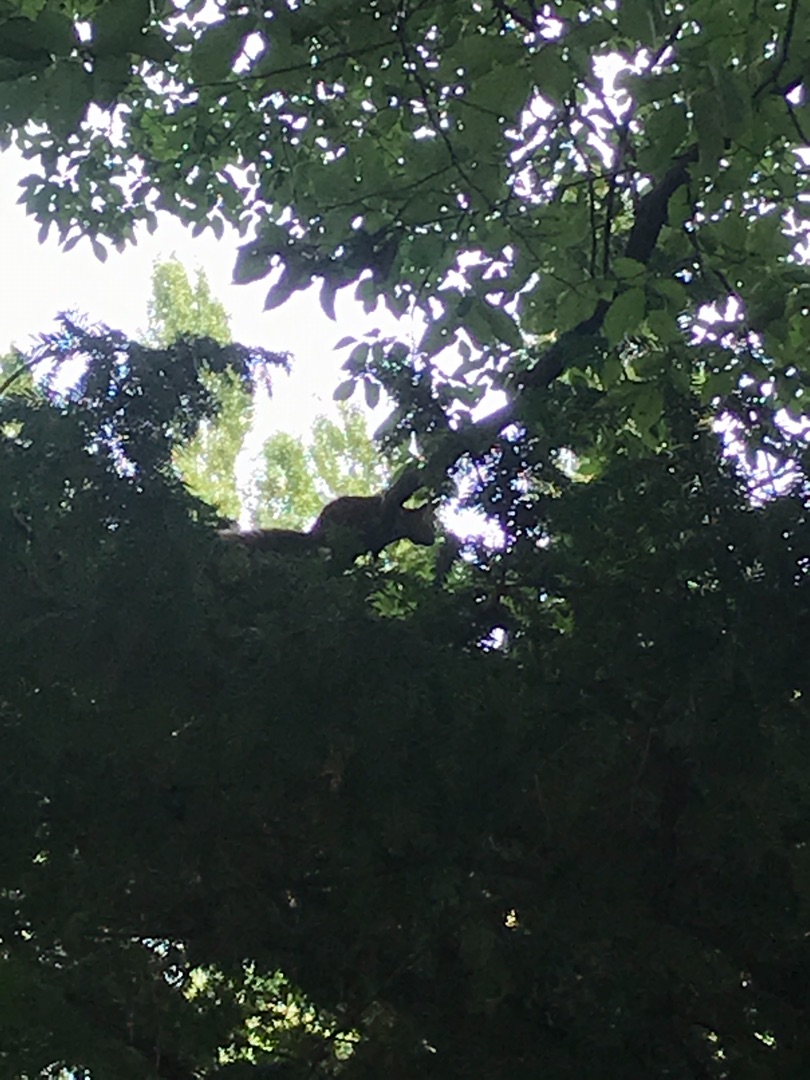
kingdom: Animalia
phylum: Chordata
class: Mammalia
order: Rodentia
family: Sciuridae
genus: Sciurus
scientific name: Sciurus vulgaris
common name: Egern
